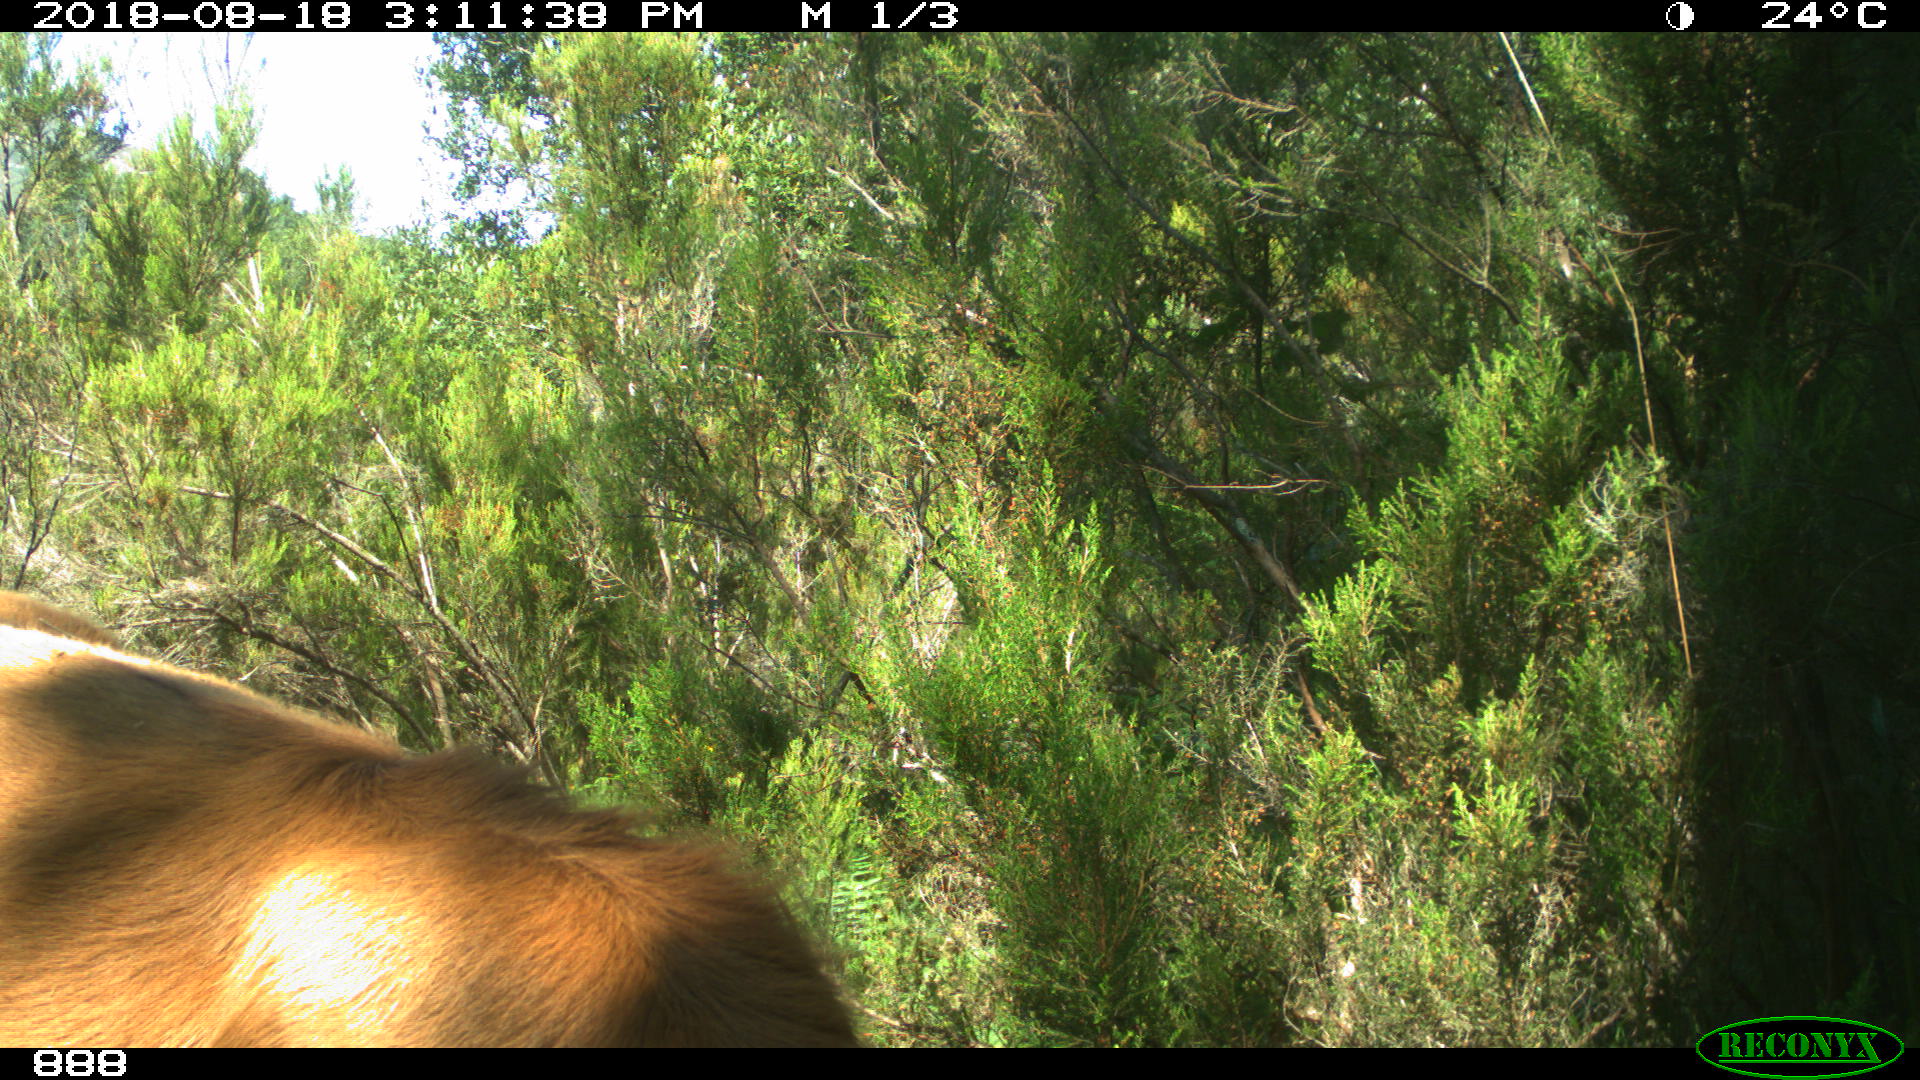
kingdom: Animalia
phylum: Chordata
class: Mammalia
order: Artiodactyla
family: Bovidae
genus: Bos
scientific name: Bos taurus
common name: Domesticated cattle
